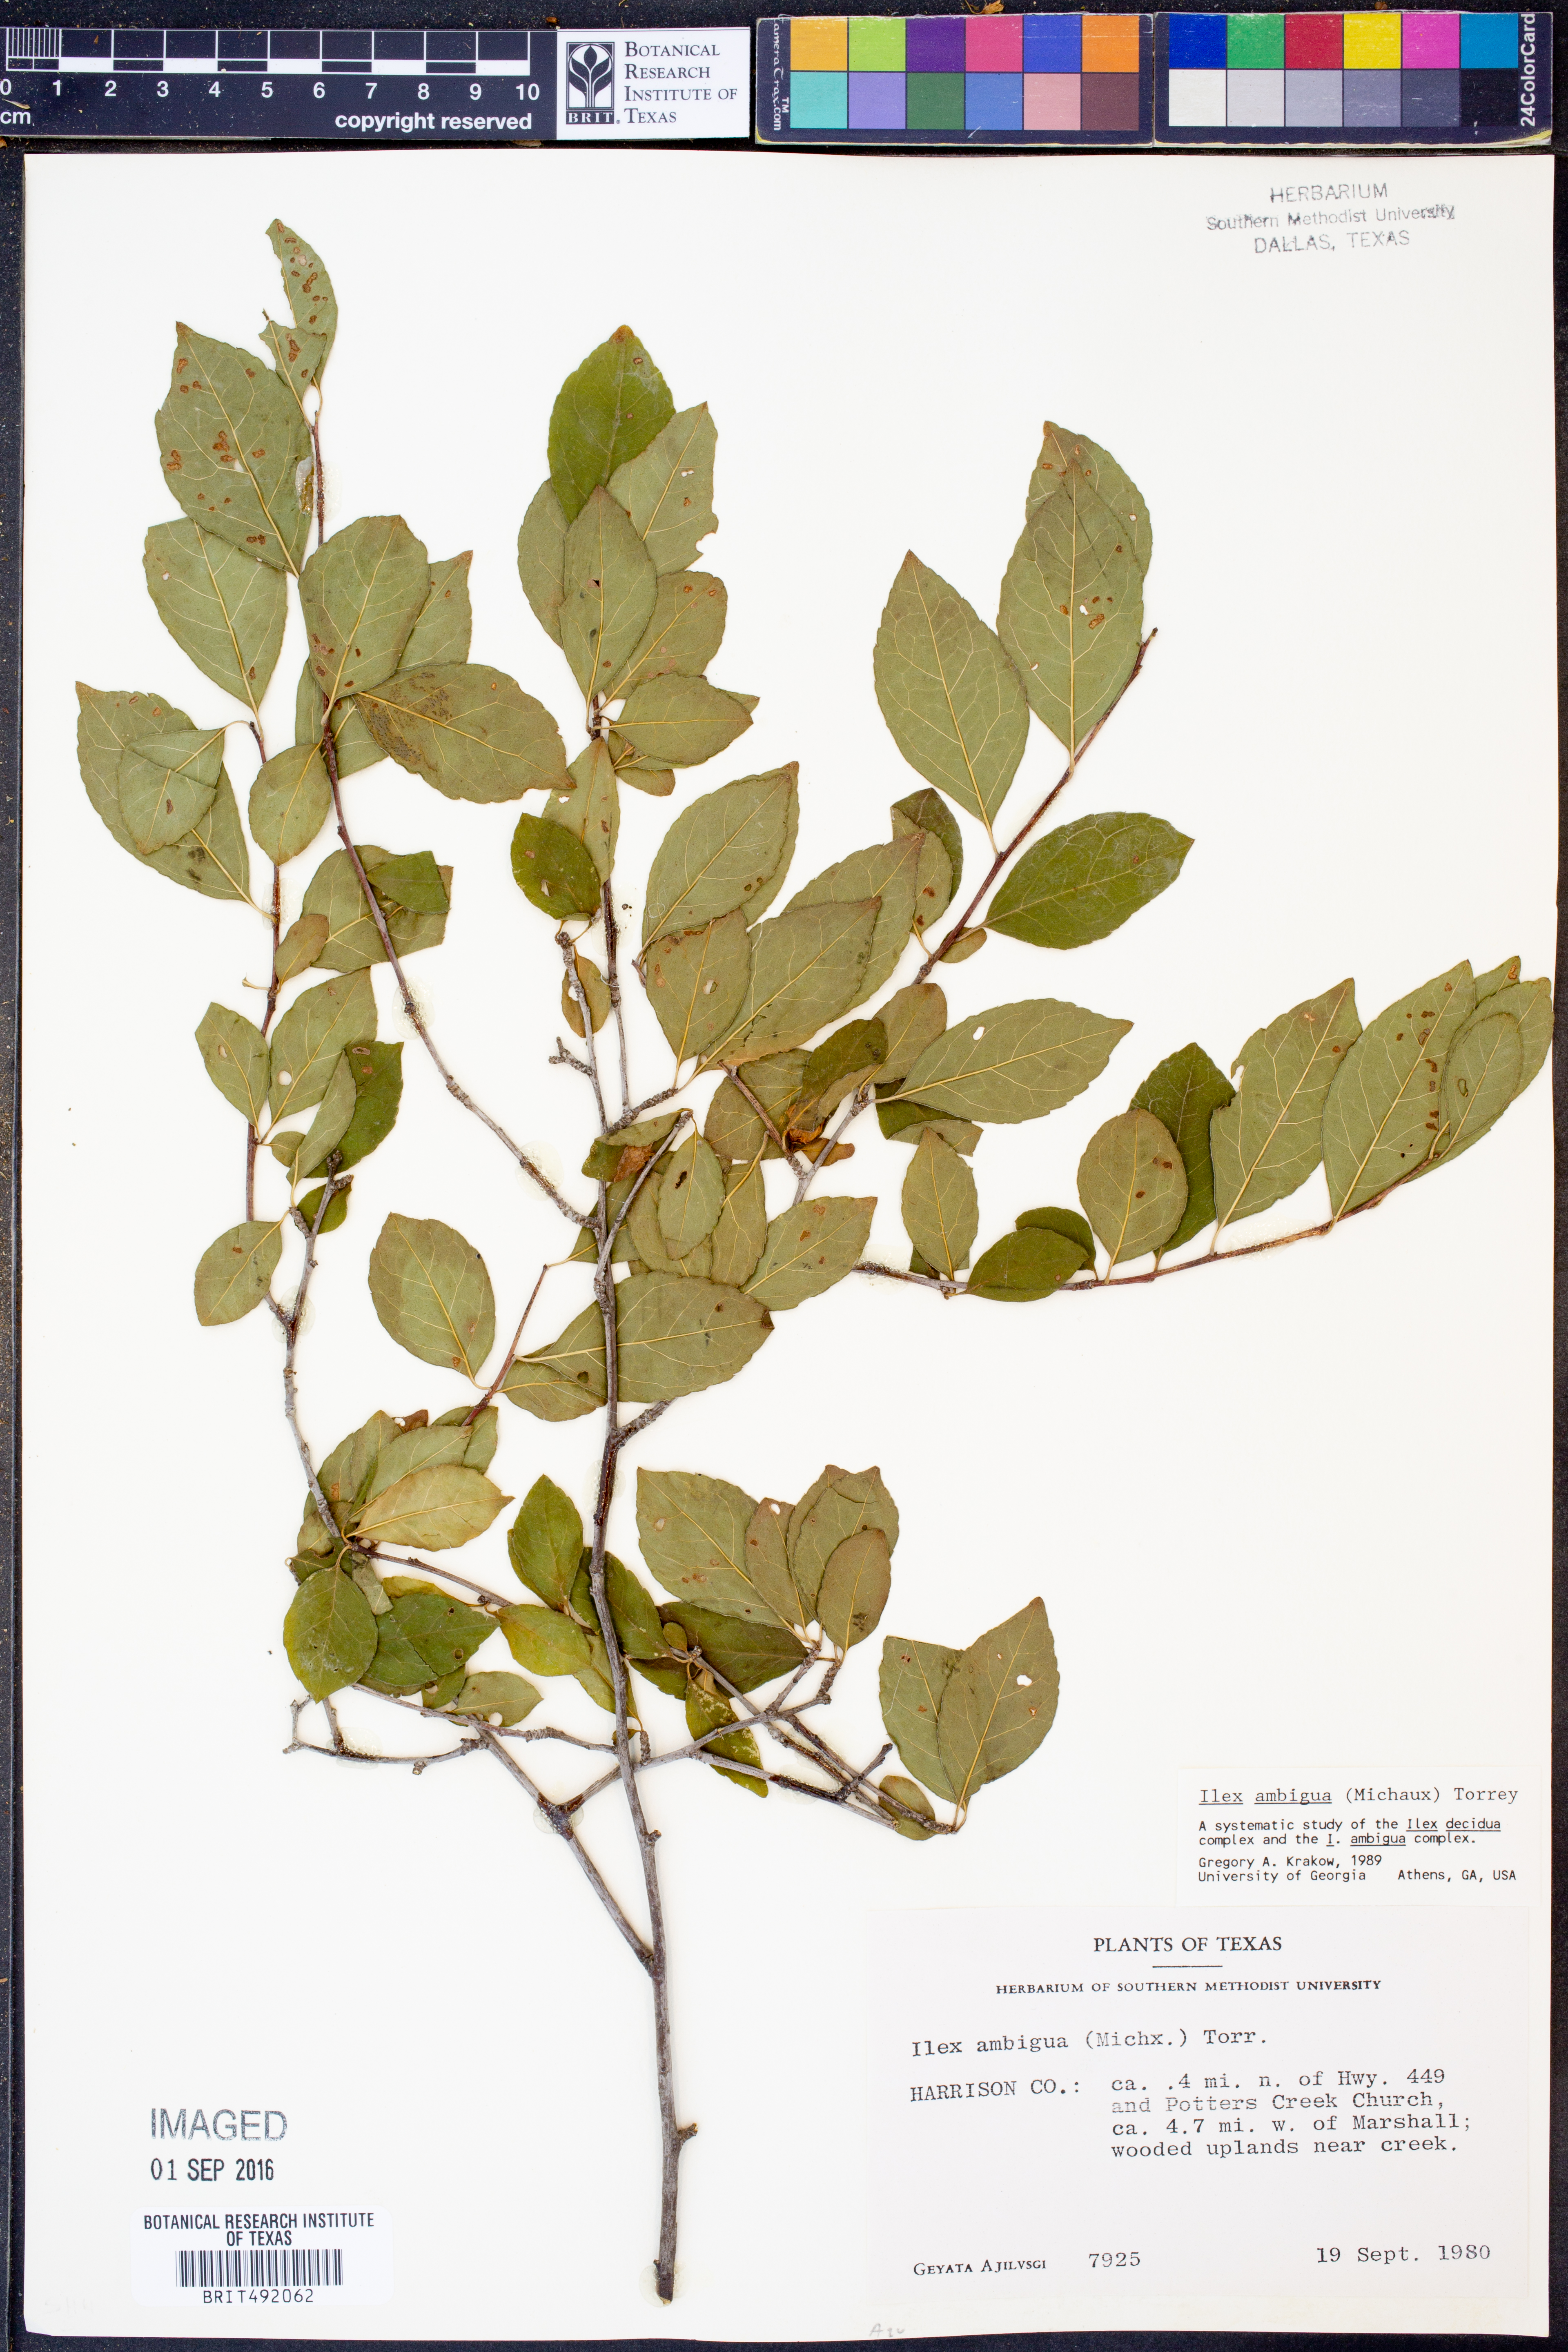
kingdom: Plantae
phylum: Tracheophyta
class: Magnoliopsida
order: Aquifoliales
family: Aquifoliaceae
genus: Ilex
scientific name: Ilex ambigua
